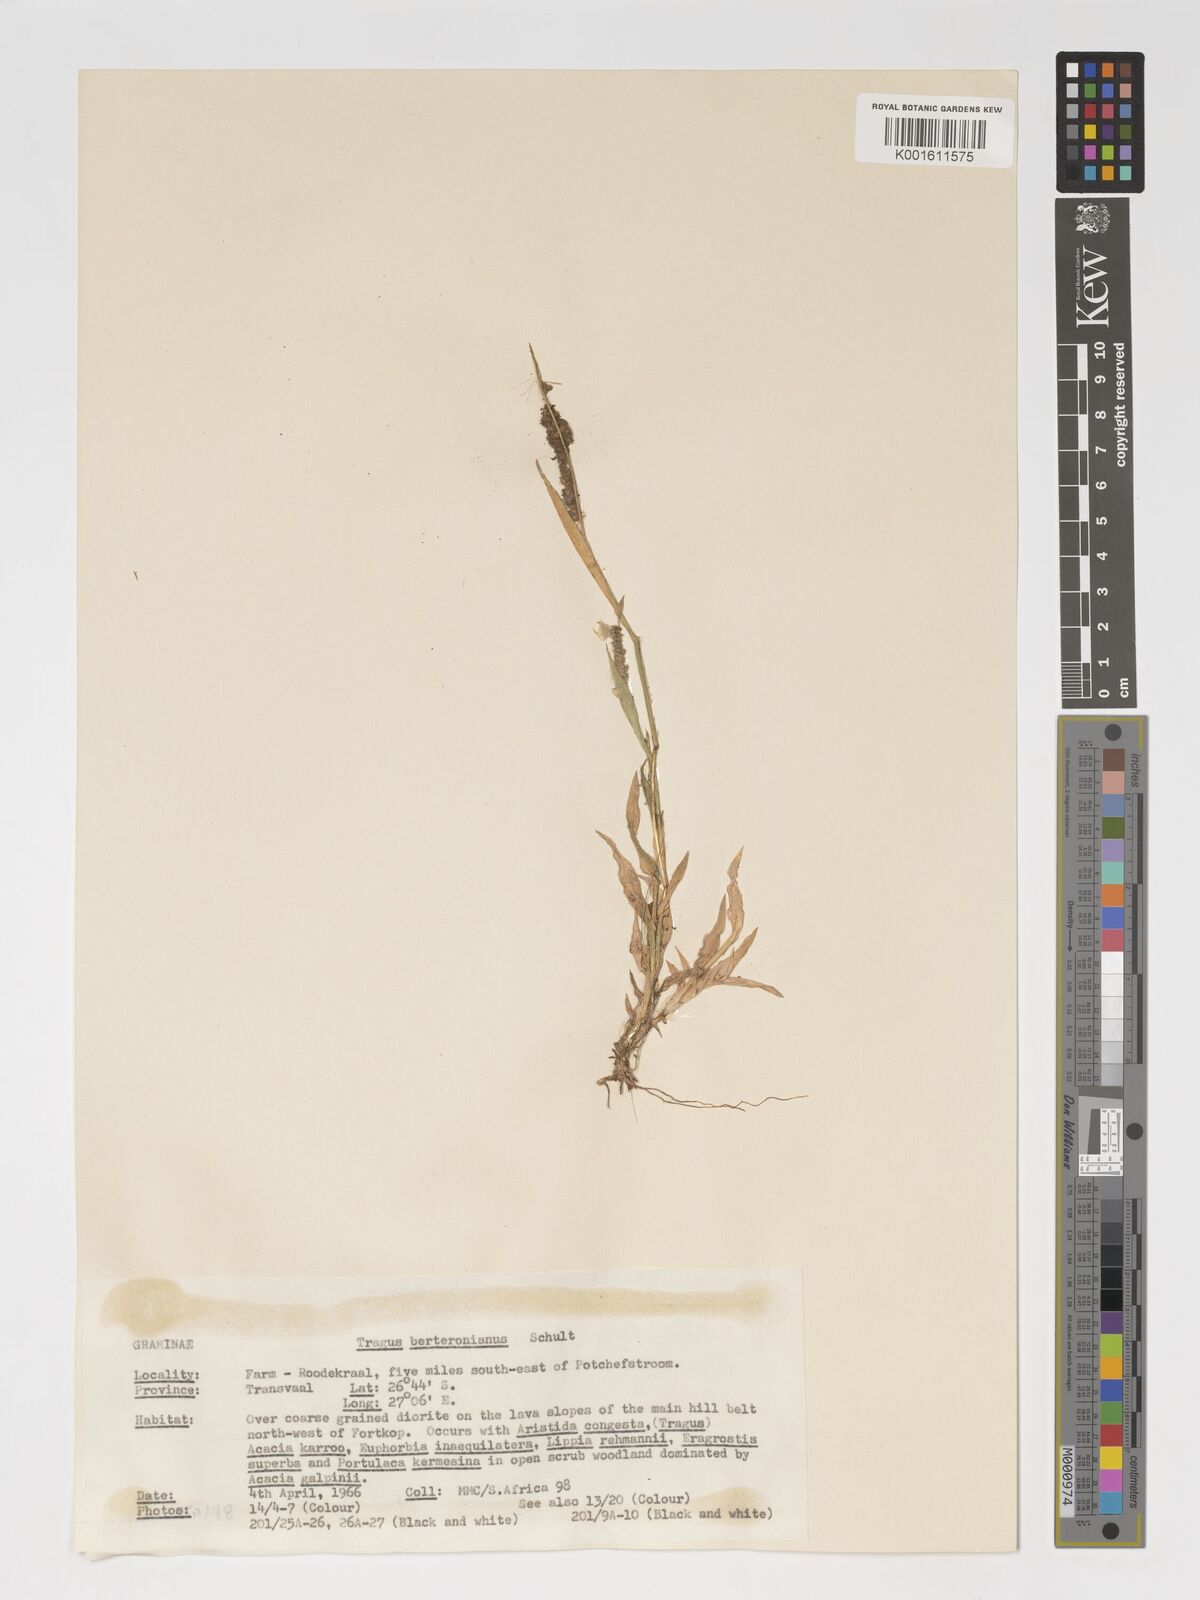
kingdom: Plantae
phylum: Tracheophyta
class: Liliopsida
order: Poales
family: Poaceae
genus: Tragus
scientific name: Tragus berteronianus
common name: African bur-grass
